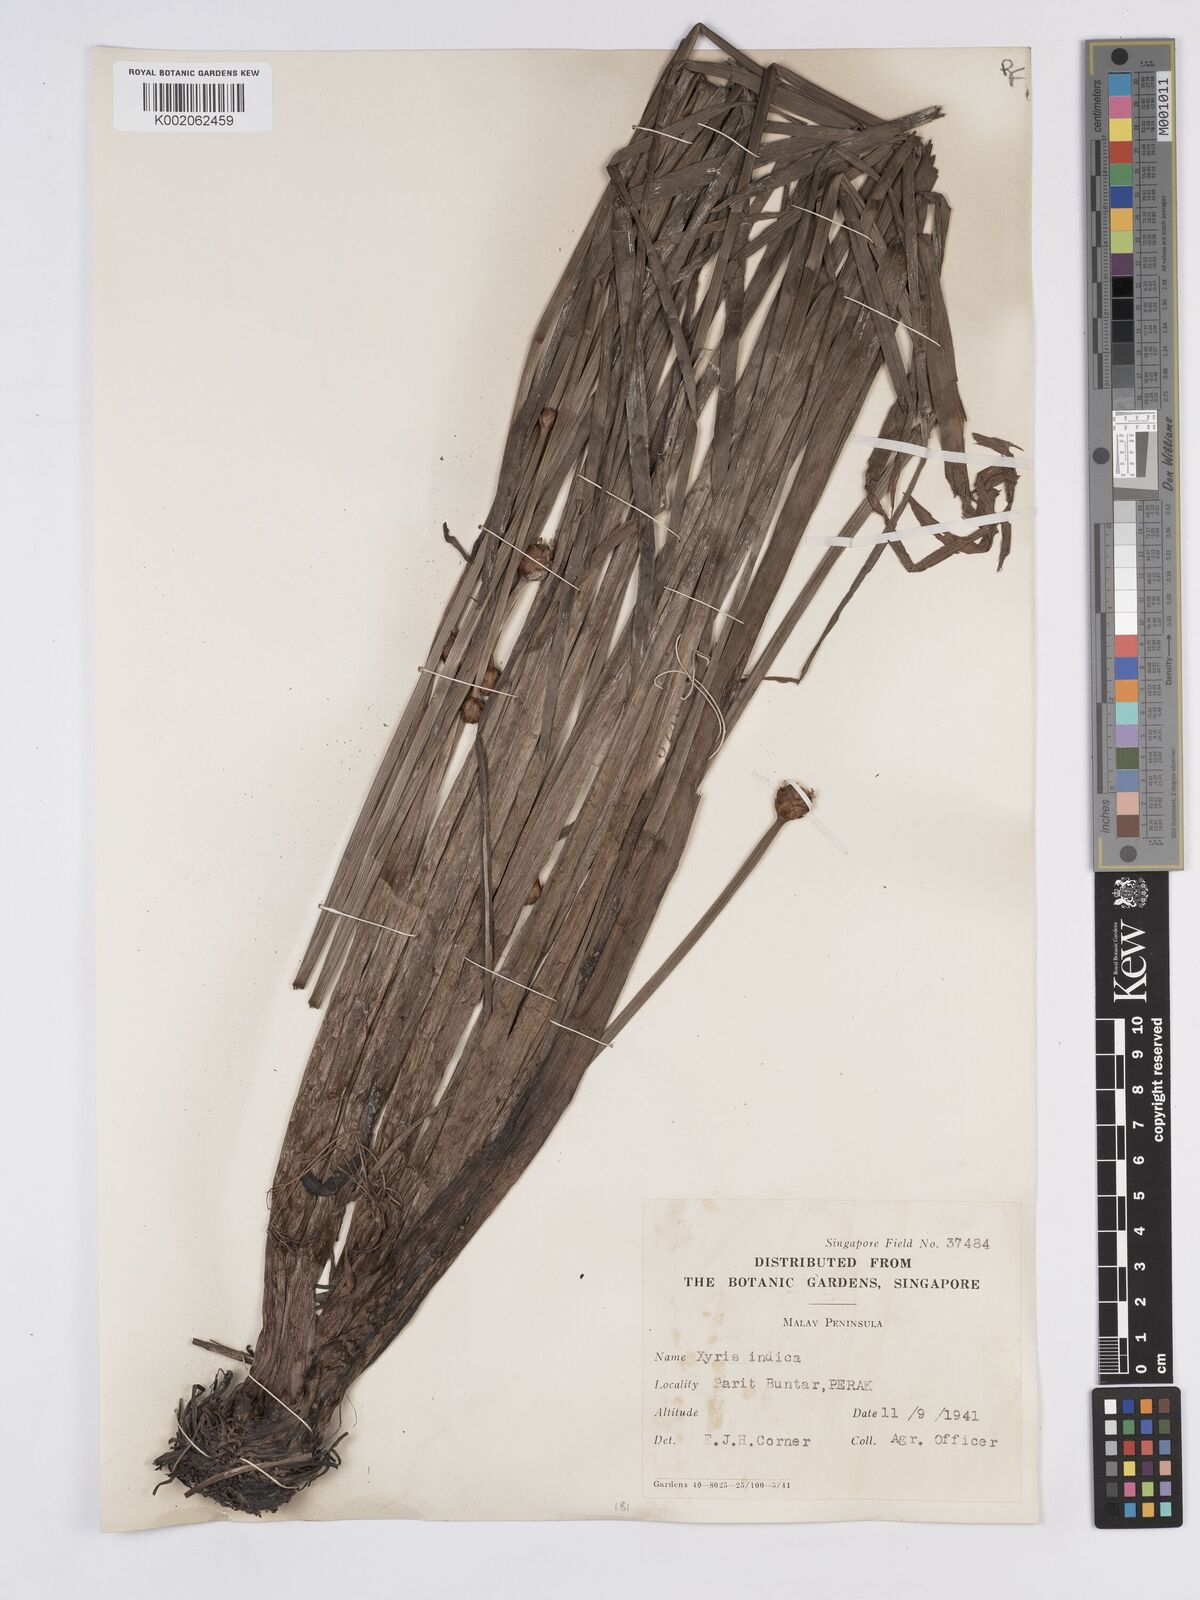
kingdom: Plantae
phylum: Tracheophyta
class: Liliopsida
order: Poales
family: Xyridaceae
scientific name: Xyridaceae
